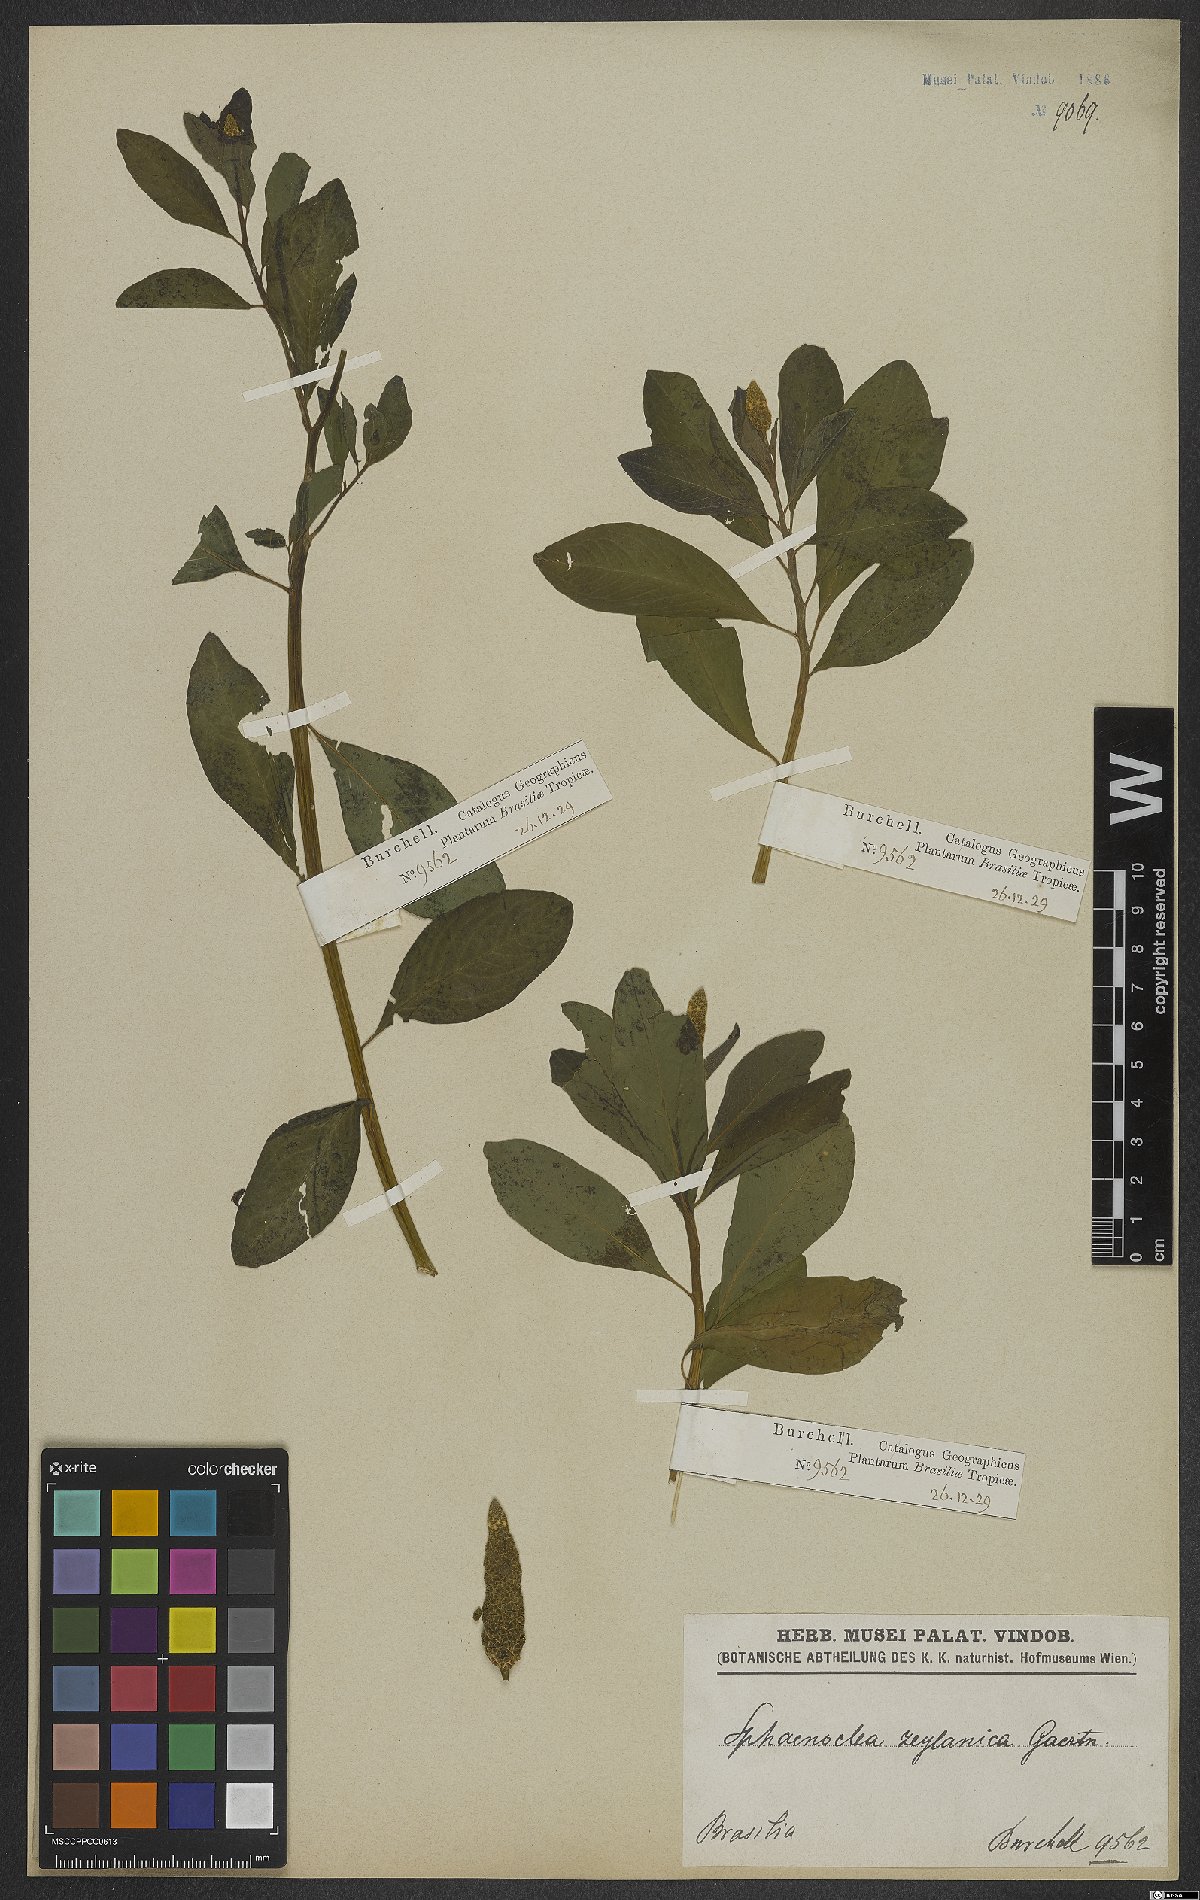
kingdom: Plantae
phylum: Tracheophyta
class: Magnoliopsida
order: Solanales
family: Sphenocleaceae
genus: Sphenoclea
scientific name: Sphenoclea zeylanica
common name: Chickenspike
